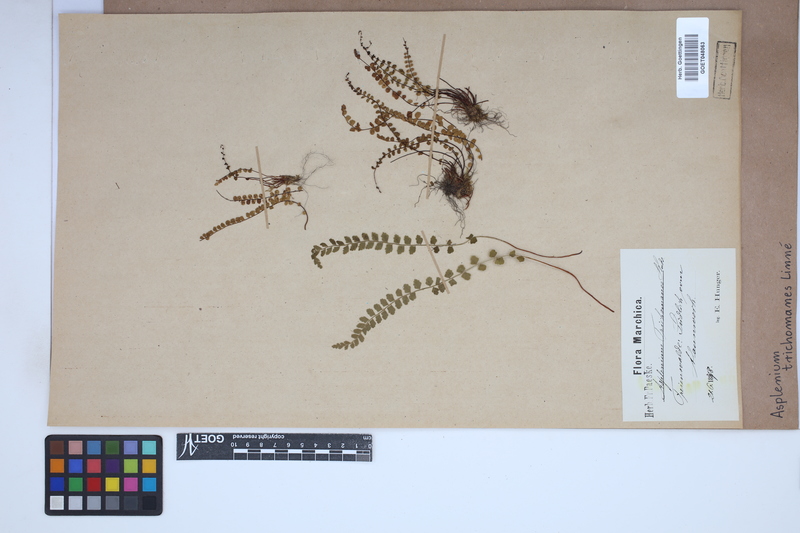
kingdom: Plantae
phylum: Tracheophyta
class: Polypodiopsida
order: Polypodiales
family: Aspleniaceae
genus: Asplenium
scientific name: Asplenium trichomanes
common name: Maidenhair spleenwort
